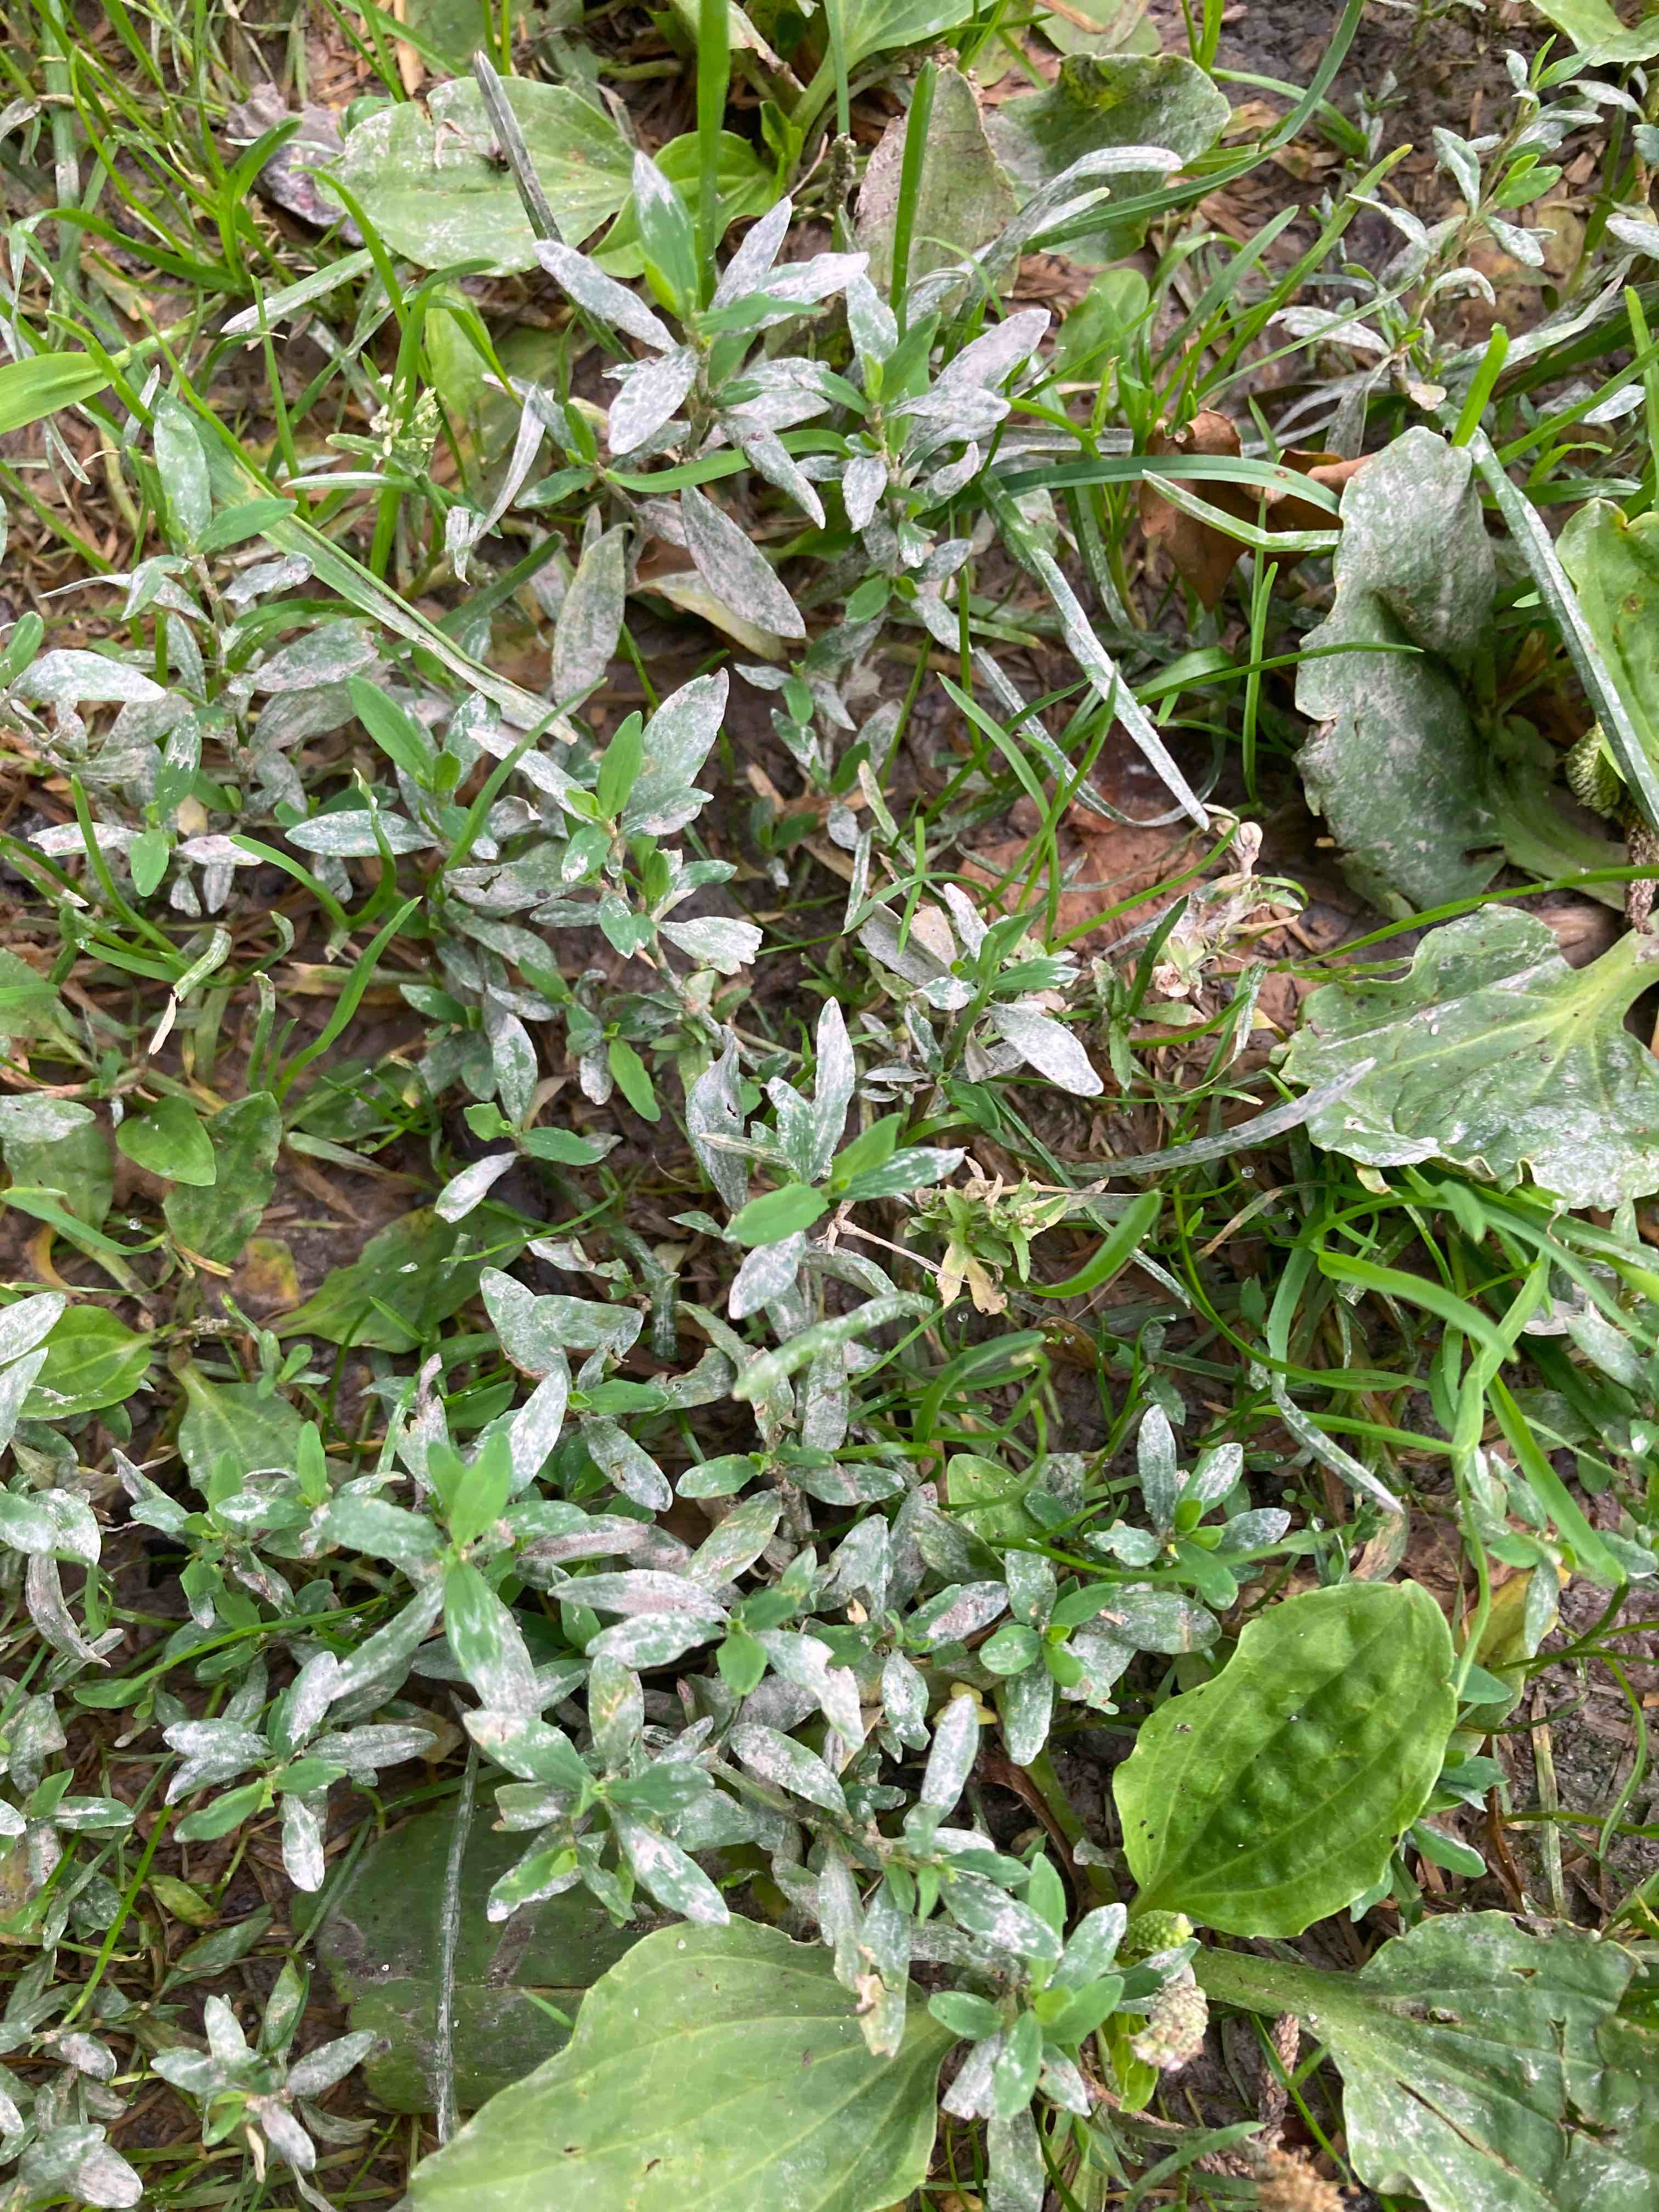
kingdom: Fungi
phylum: Ascomycota
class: Leotiomycetes
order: Helotiales
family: Erysiphaceae
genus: Erysiphe
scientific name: Erysiphe polygoni
